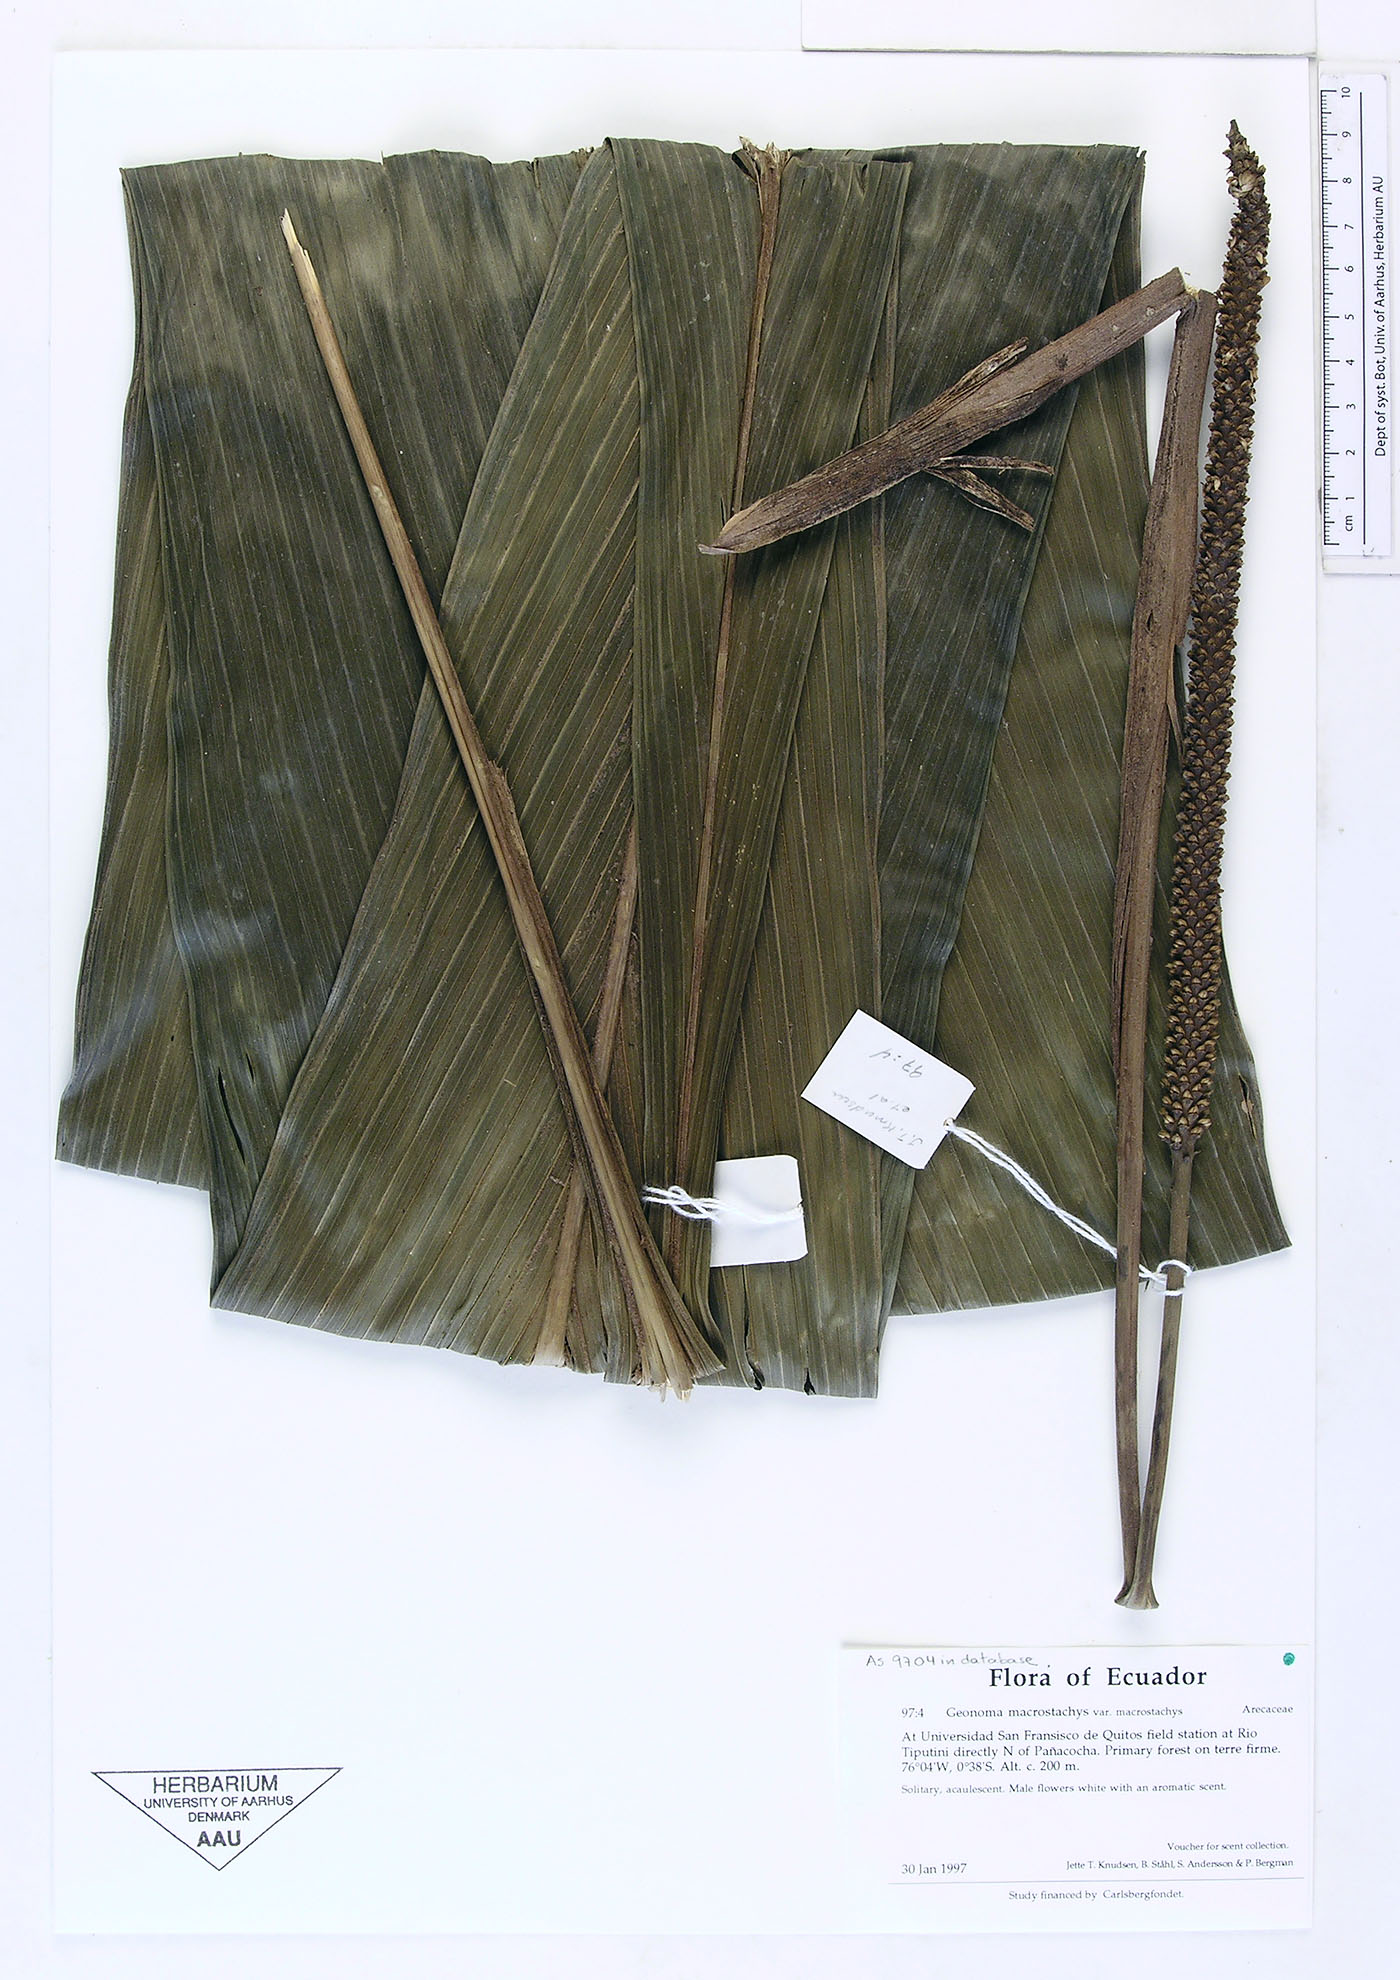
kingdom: Plantae
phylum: Tracheophyta
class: Liliopsida
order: Arecales
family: Arecaceae
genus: Geonoma
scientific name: Geonoma macrostachys
